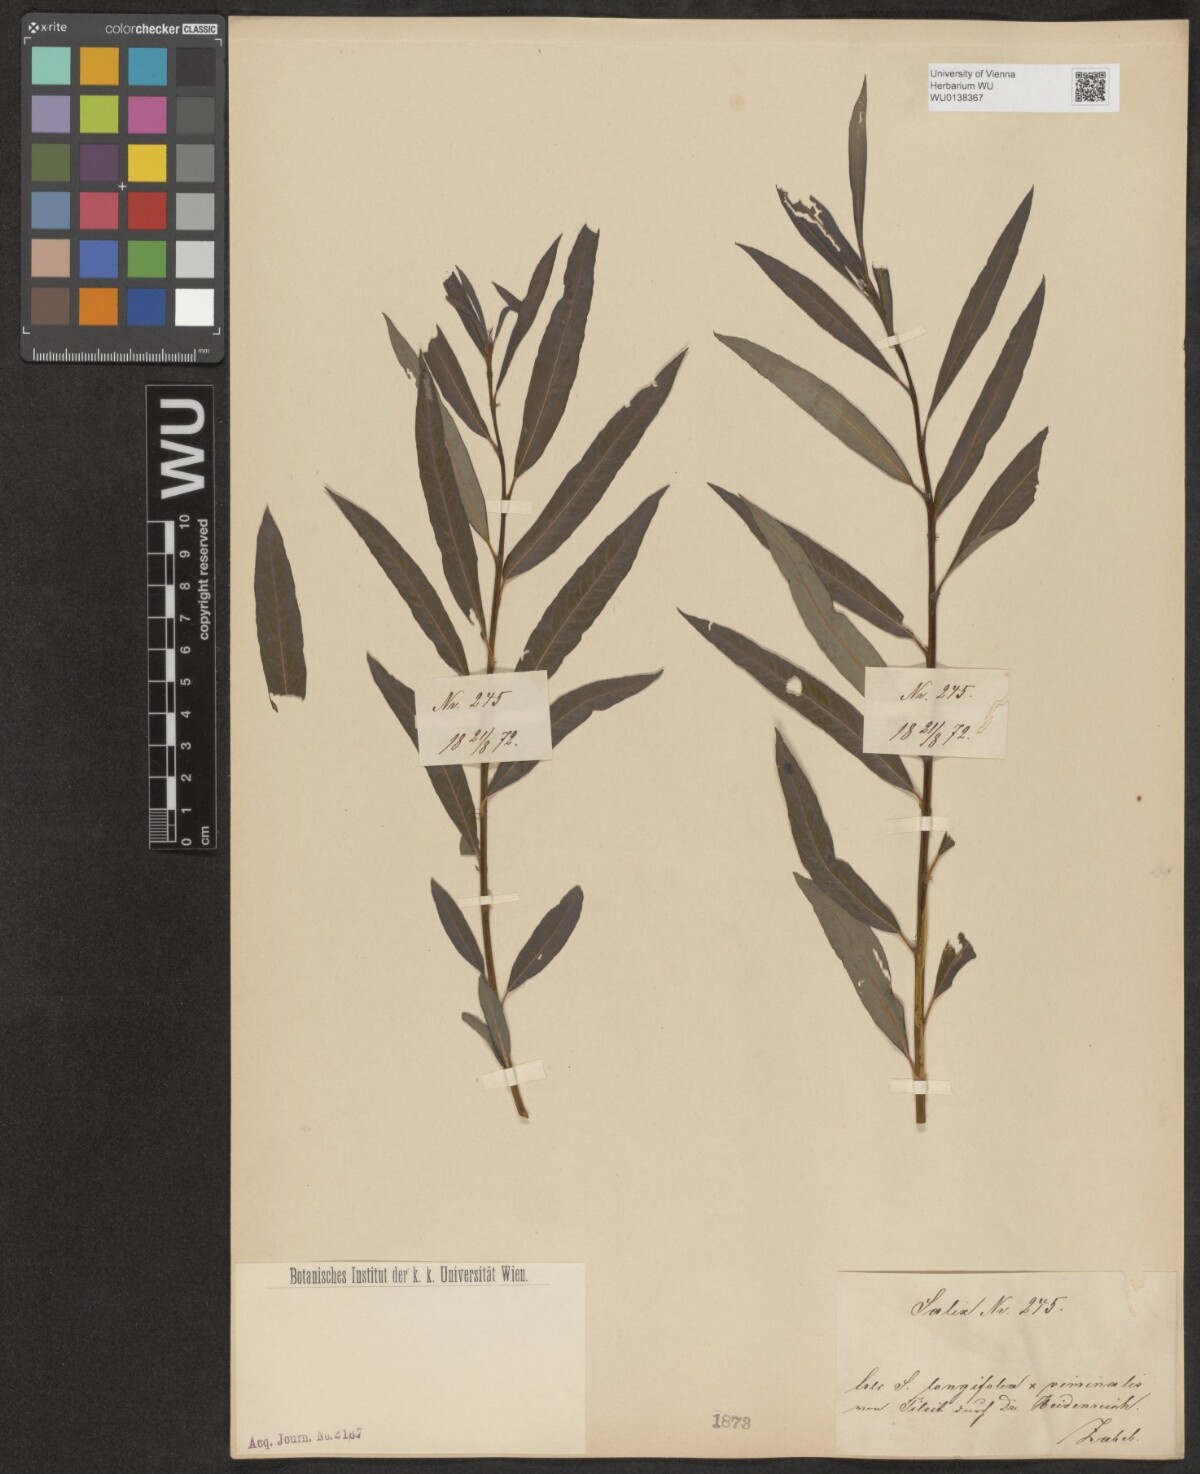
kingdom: Plantae
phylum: Tracheophyta
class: Magnoliopsida
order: Malpighiales
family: Salicaceae
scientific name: Salicaceae
